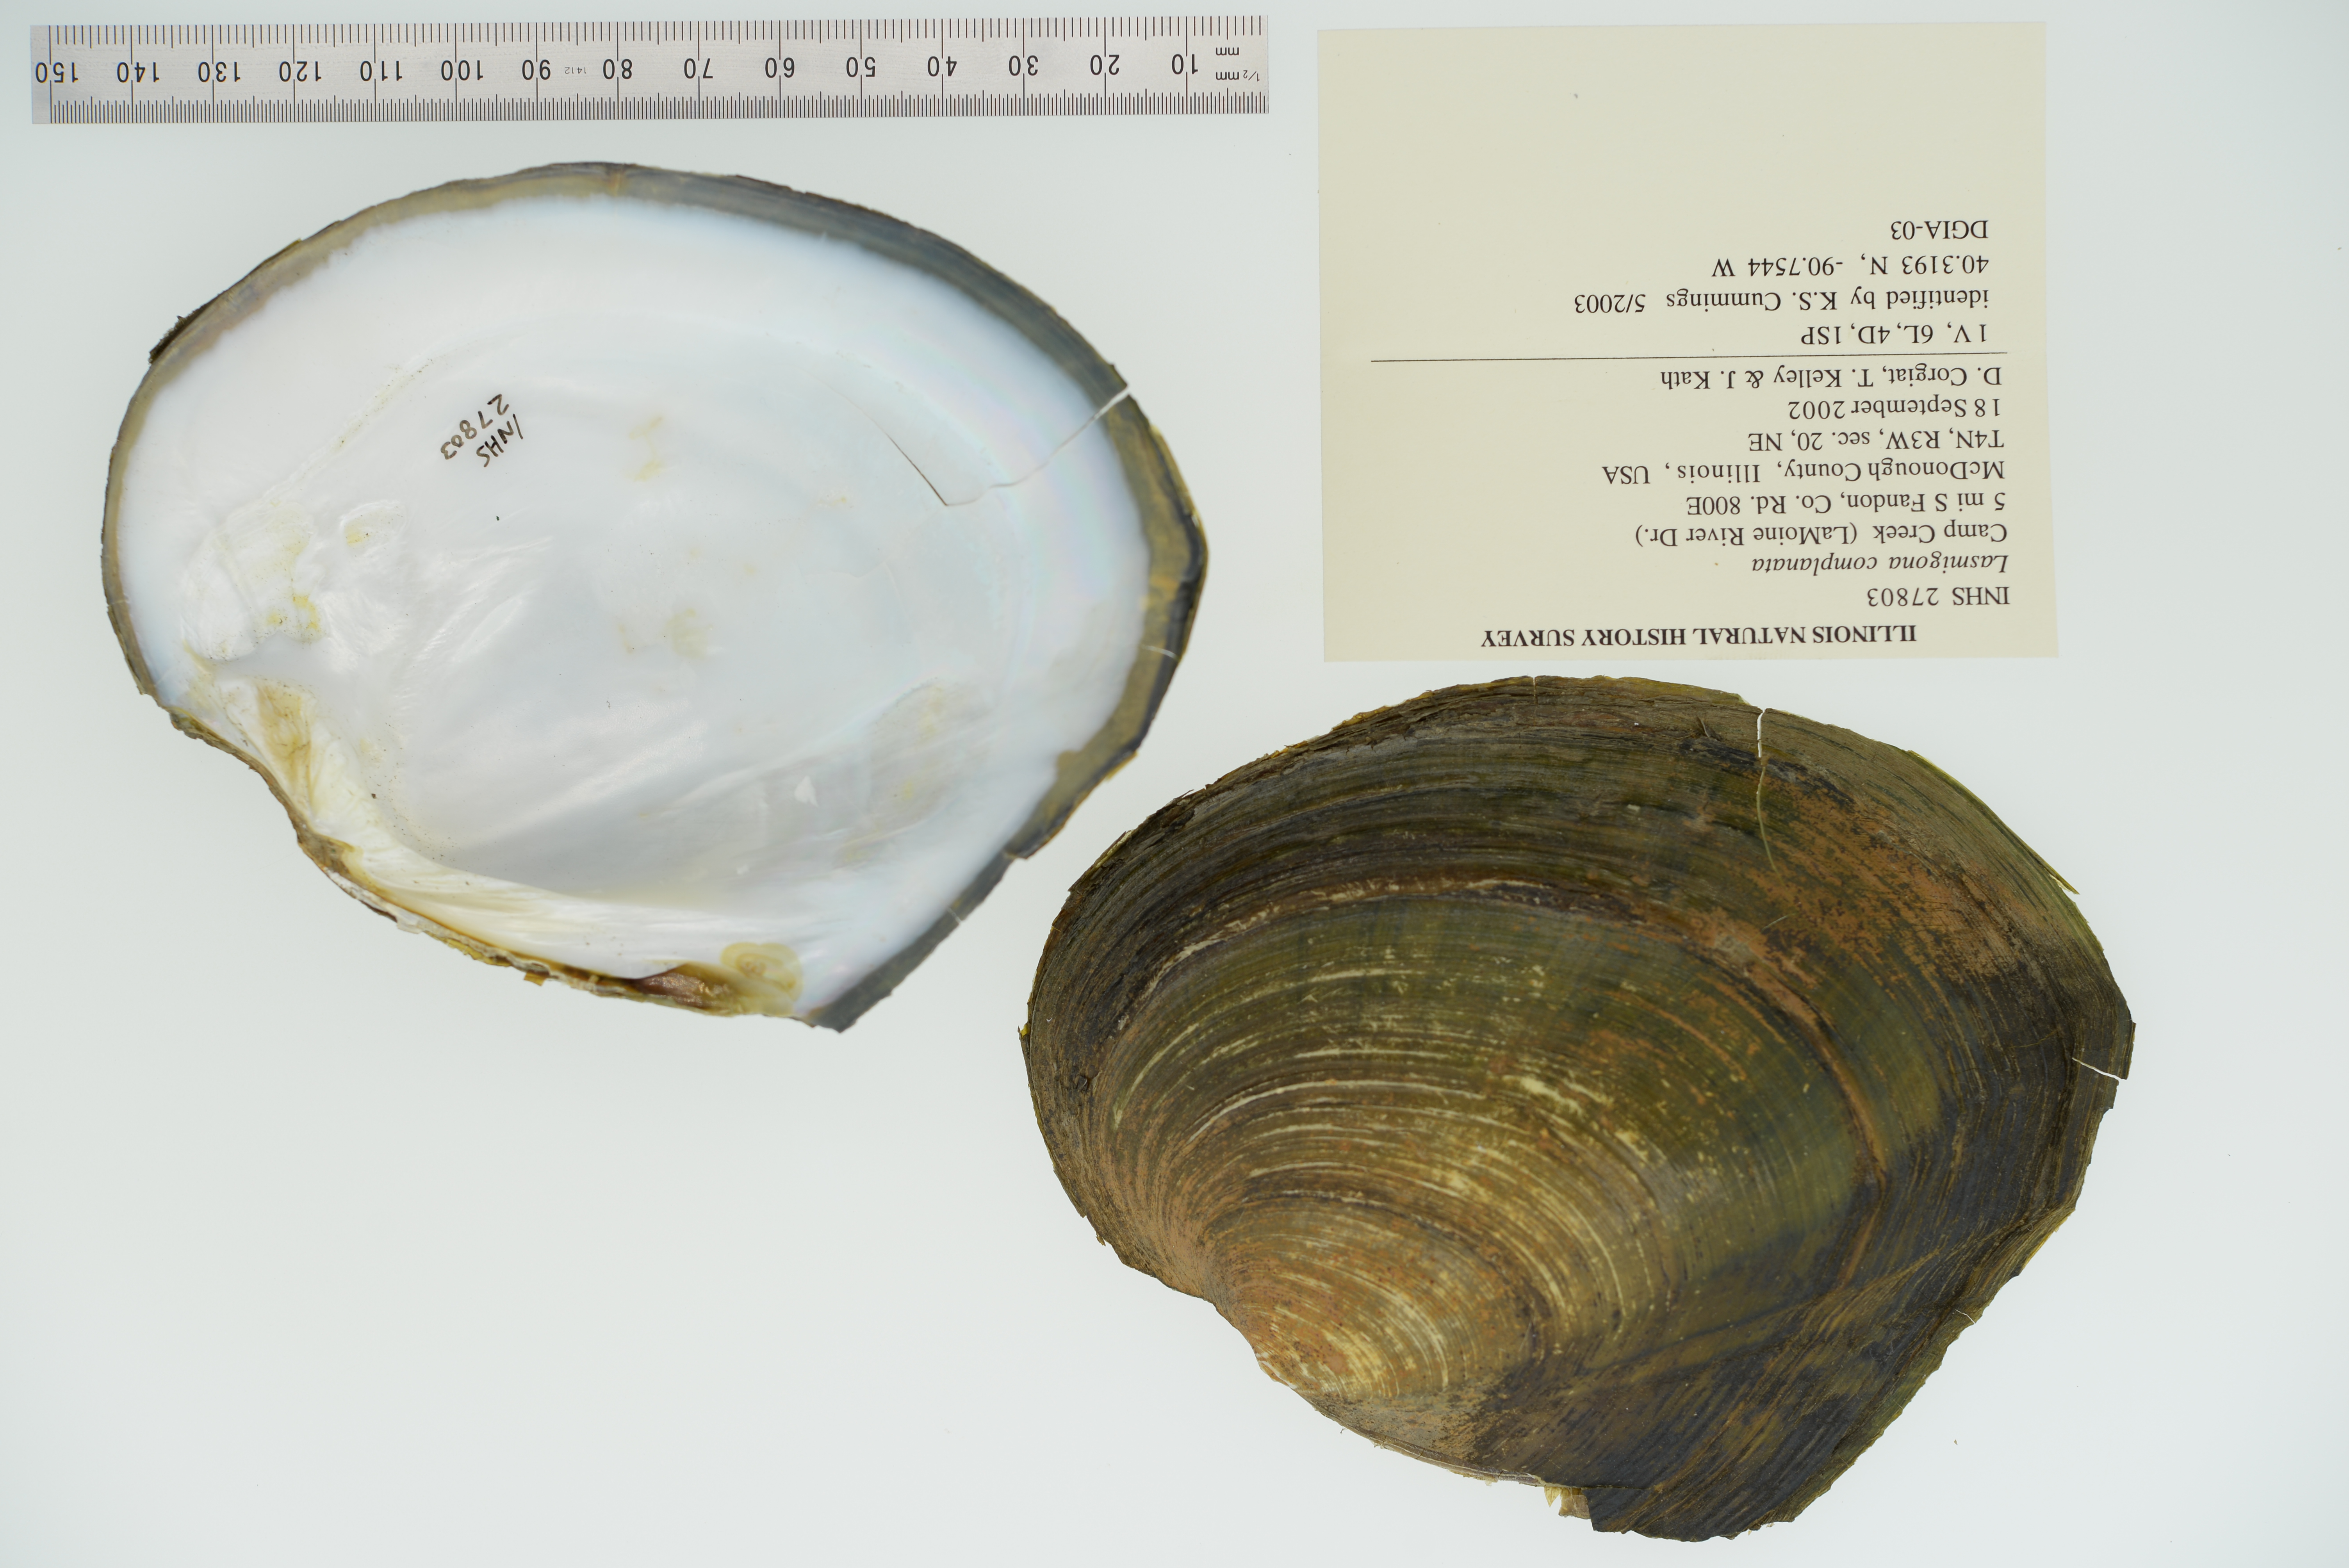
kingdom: Animalia
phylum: Mollusca
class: Bivalvia
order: Unionida
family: Unionidae
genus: Lasmigona
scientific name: Lasmigona complanata
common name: White heelsplitter
